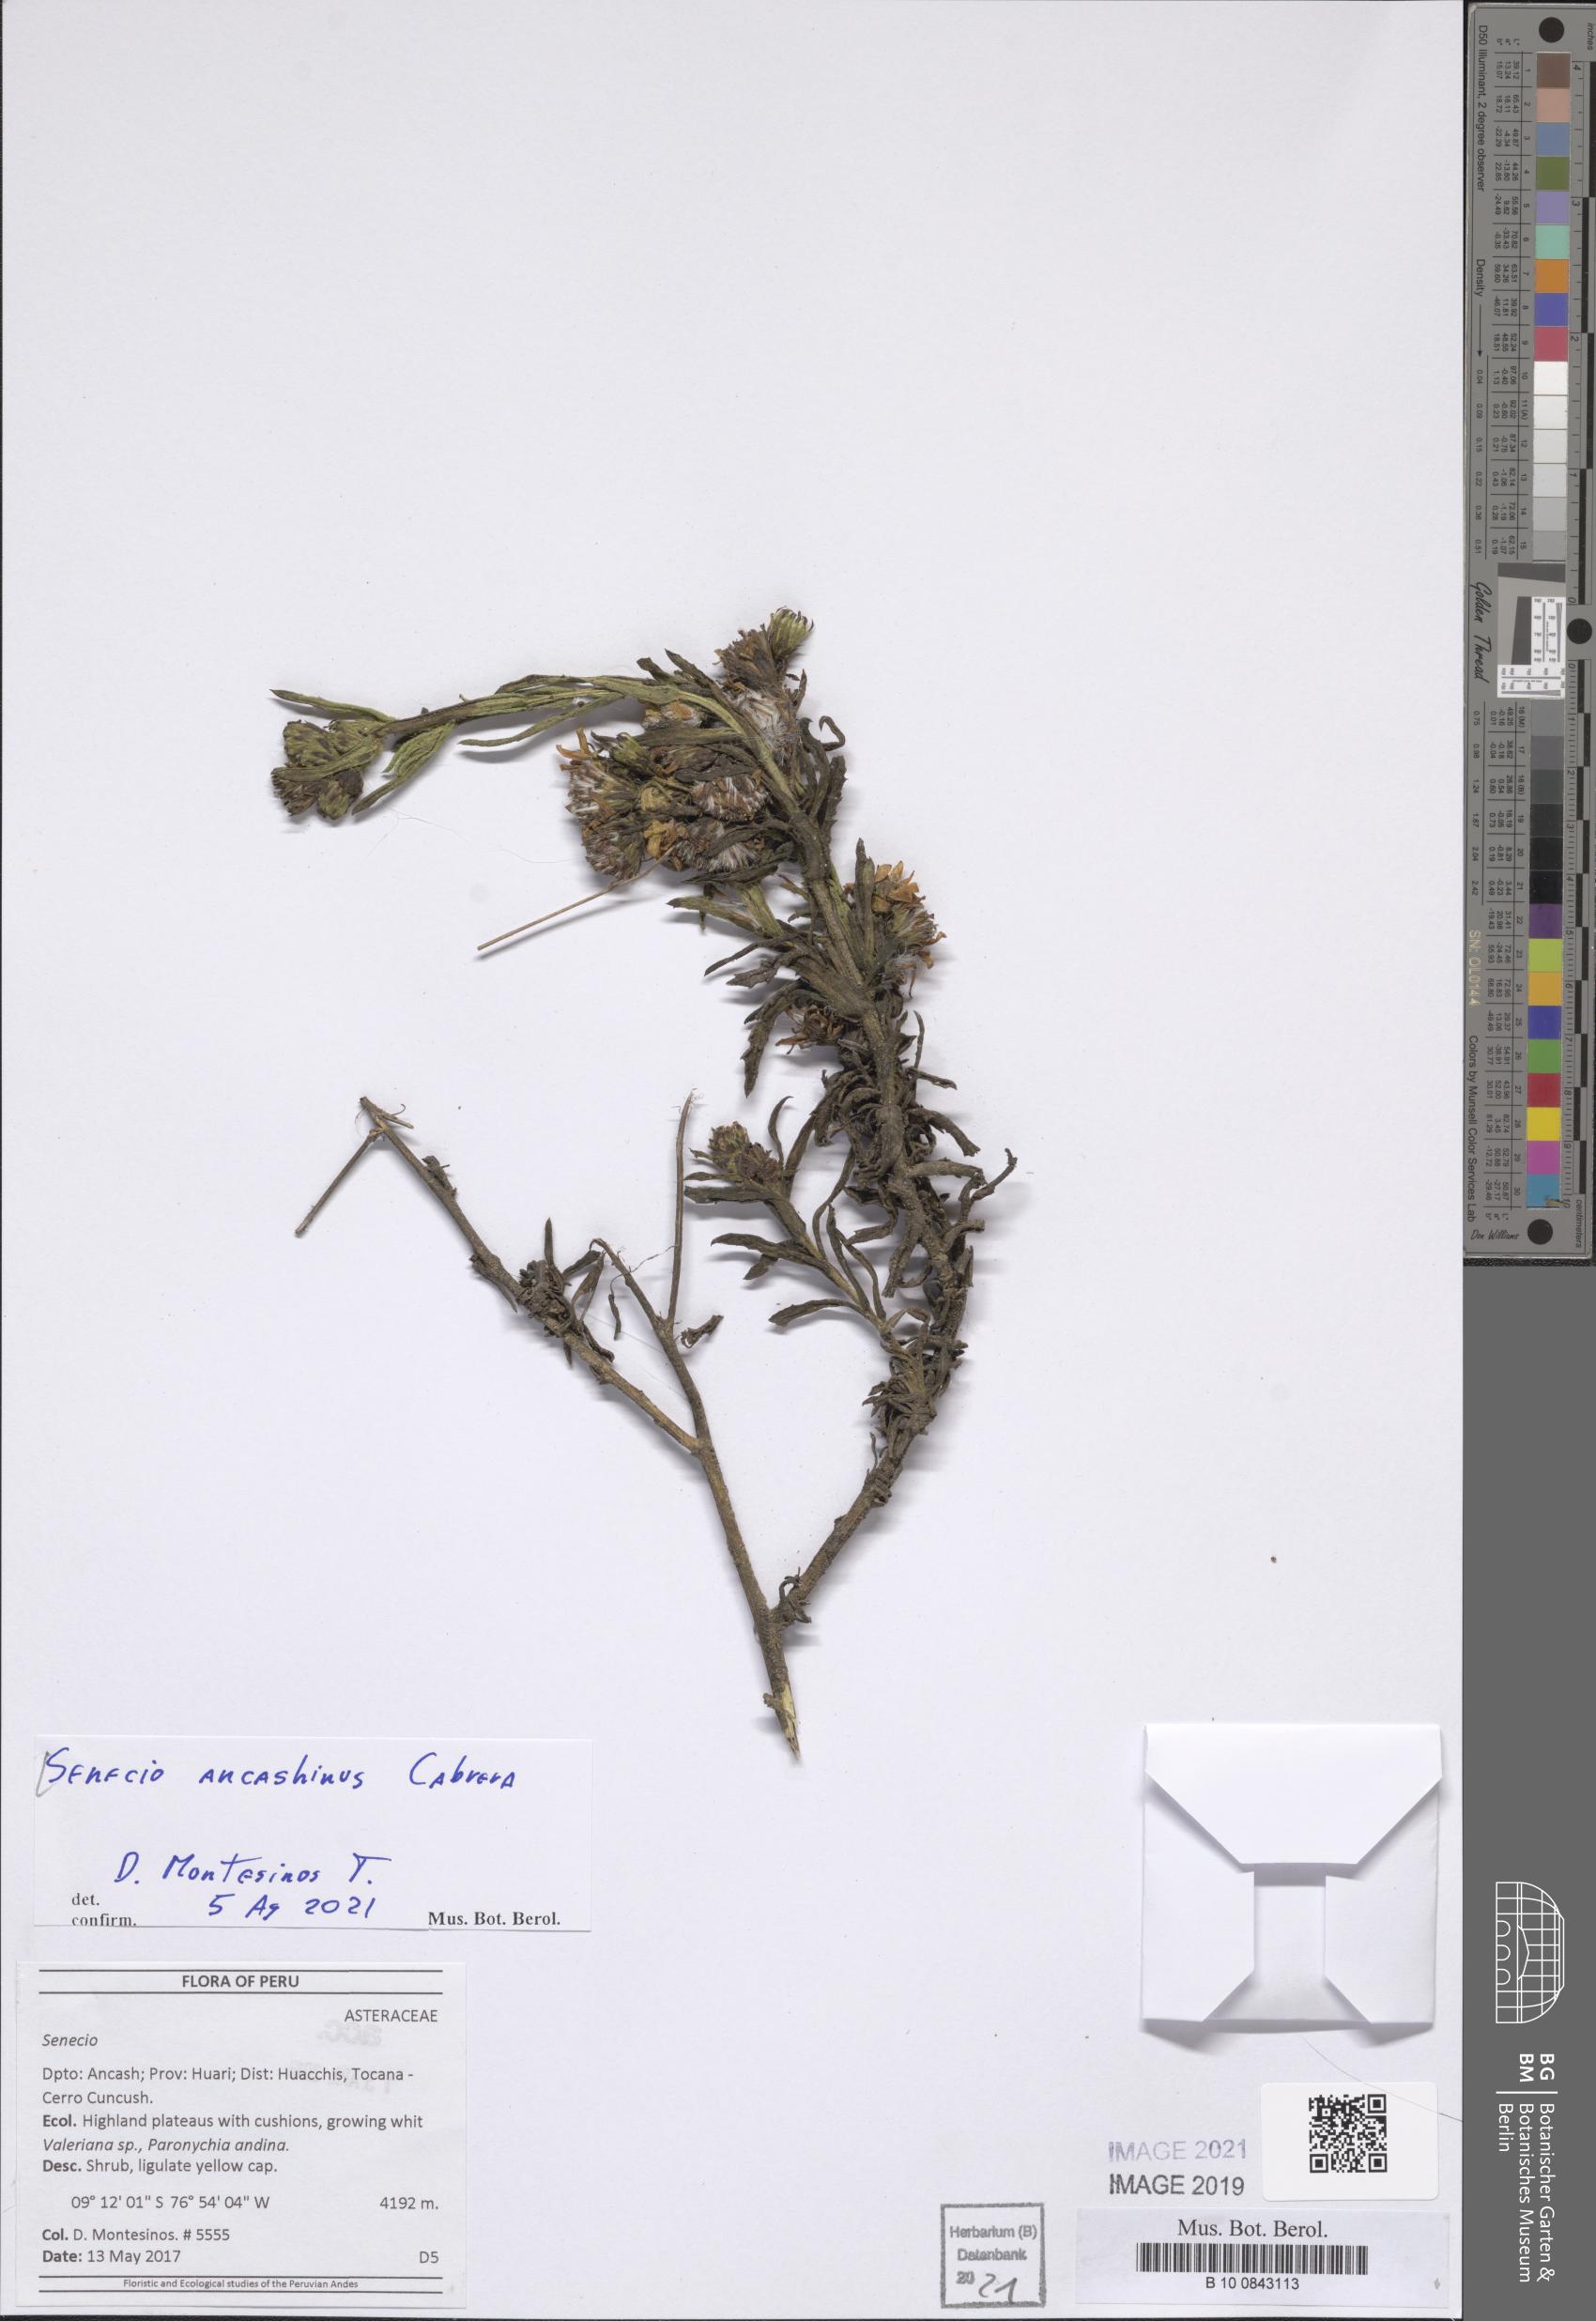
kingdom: Plantae
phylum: Tracheophyta
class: Magnoliopsida
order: Asterales
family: Asteraceae
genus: Senecio
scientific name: Senecio ancashinus
